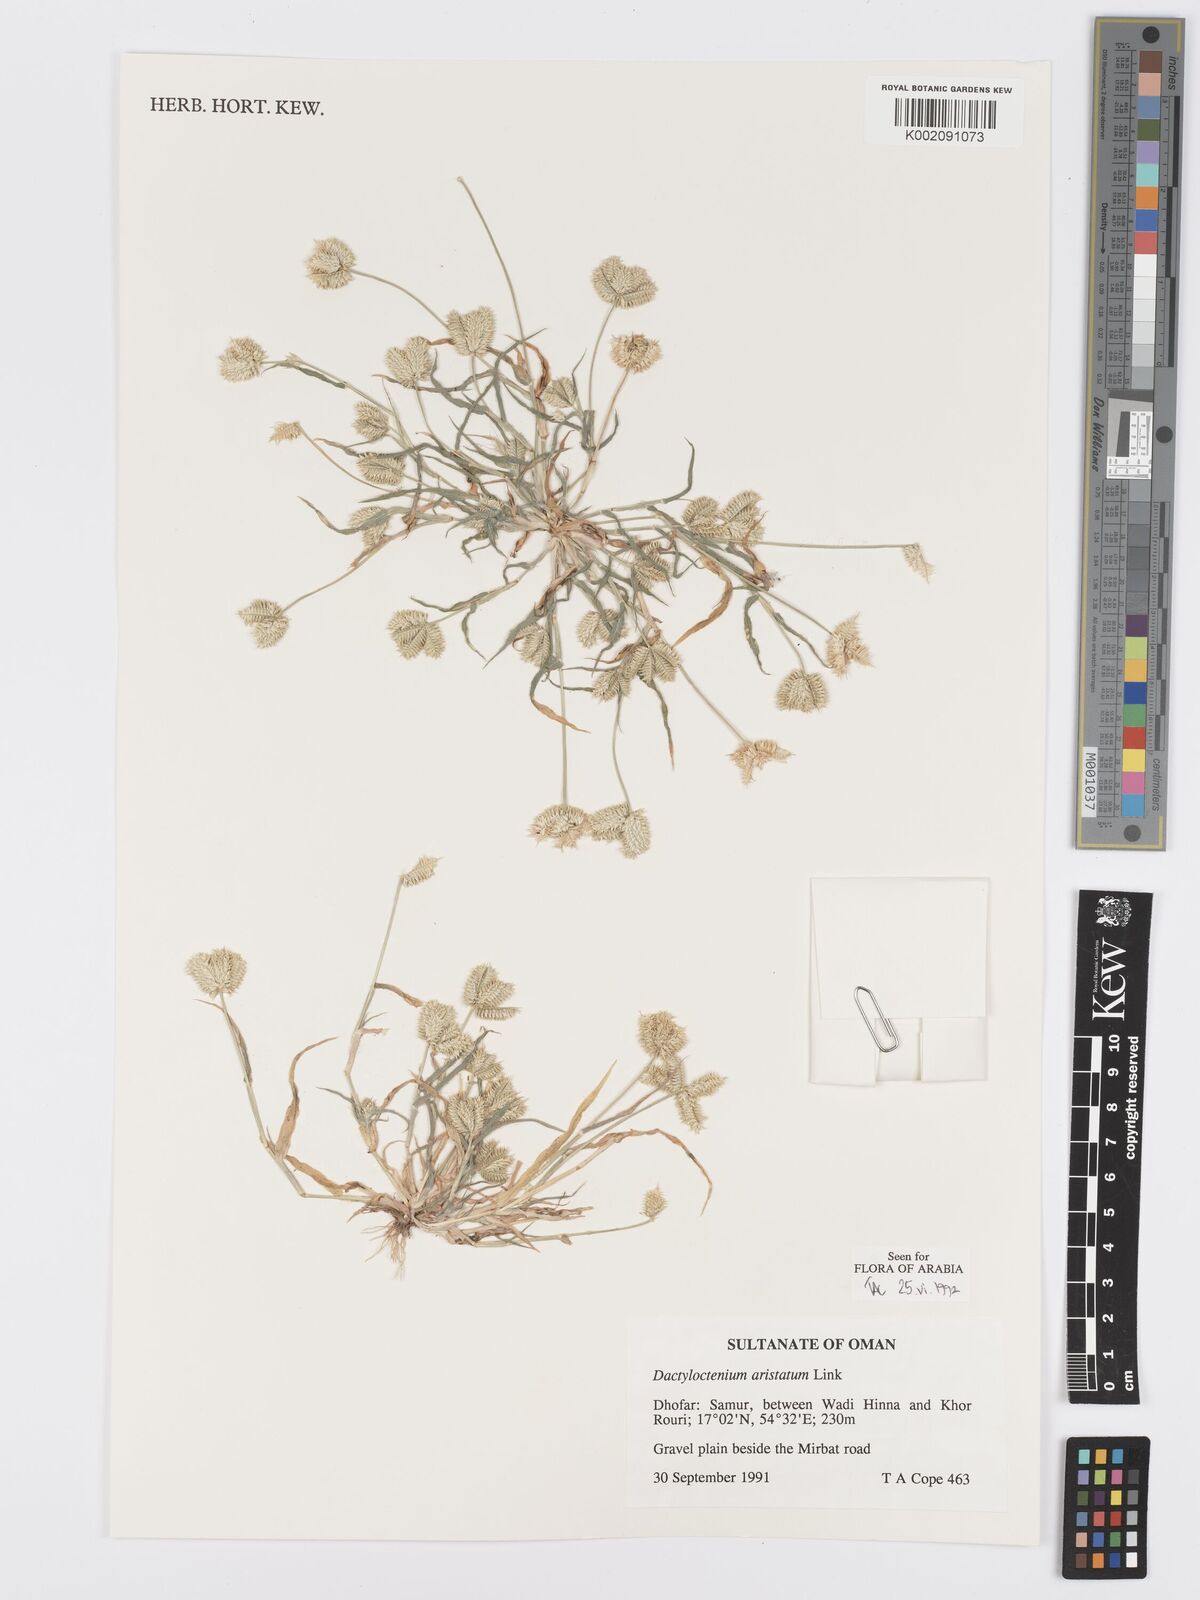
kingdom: Plantae
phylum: Tracheophyta
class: Liliopsida
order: Poales
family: Poaceae
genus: Dactyloctenium
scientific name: Dactyloctenium aristatum
